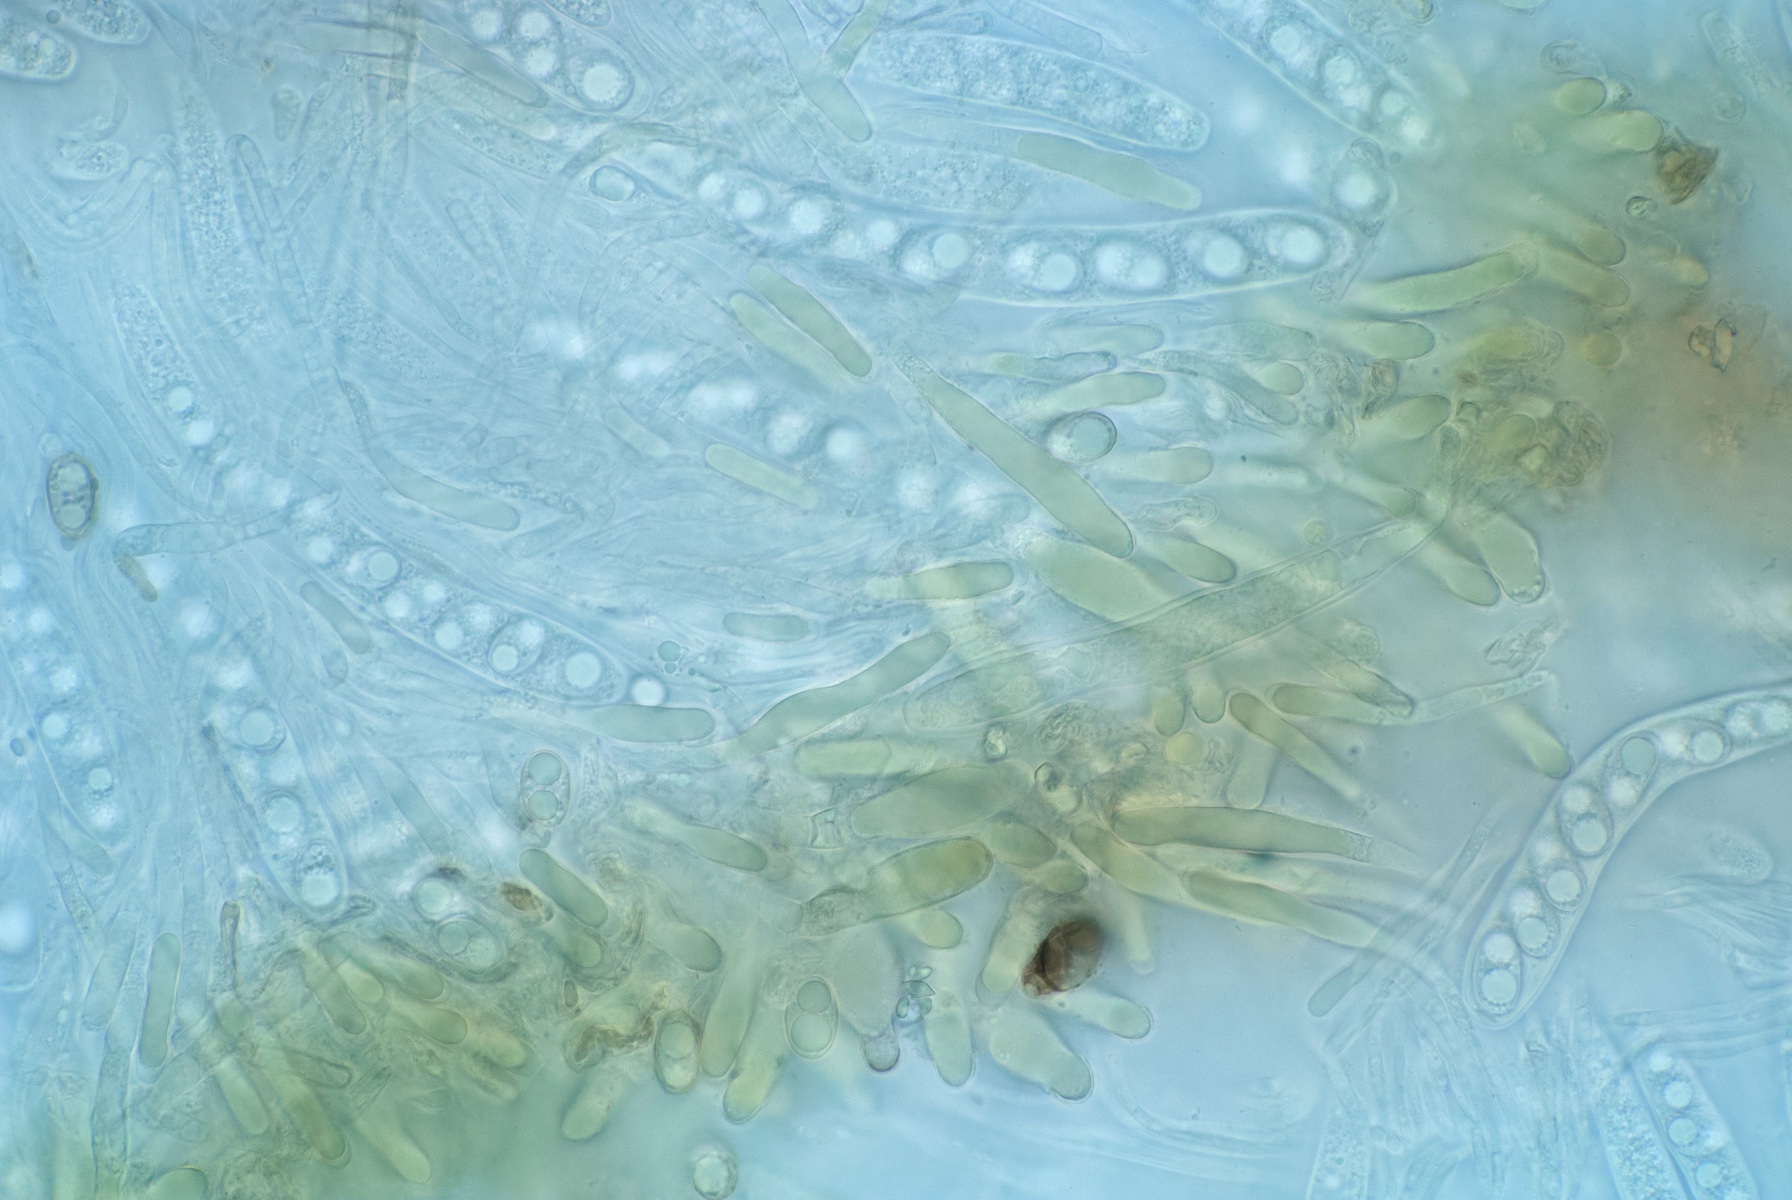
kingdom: Fungi
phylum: Ascomycota
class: Leotiomycetes
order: Helotiales
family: Cenangiaceae
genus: Velutarina
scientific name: Velutarina rufo-olivacea
